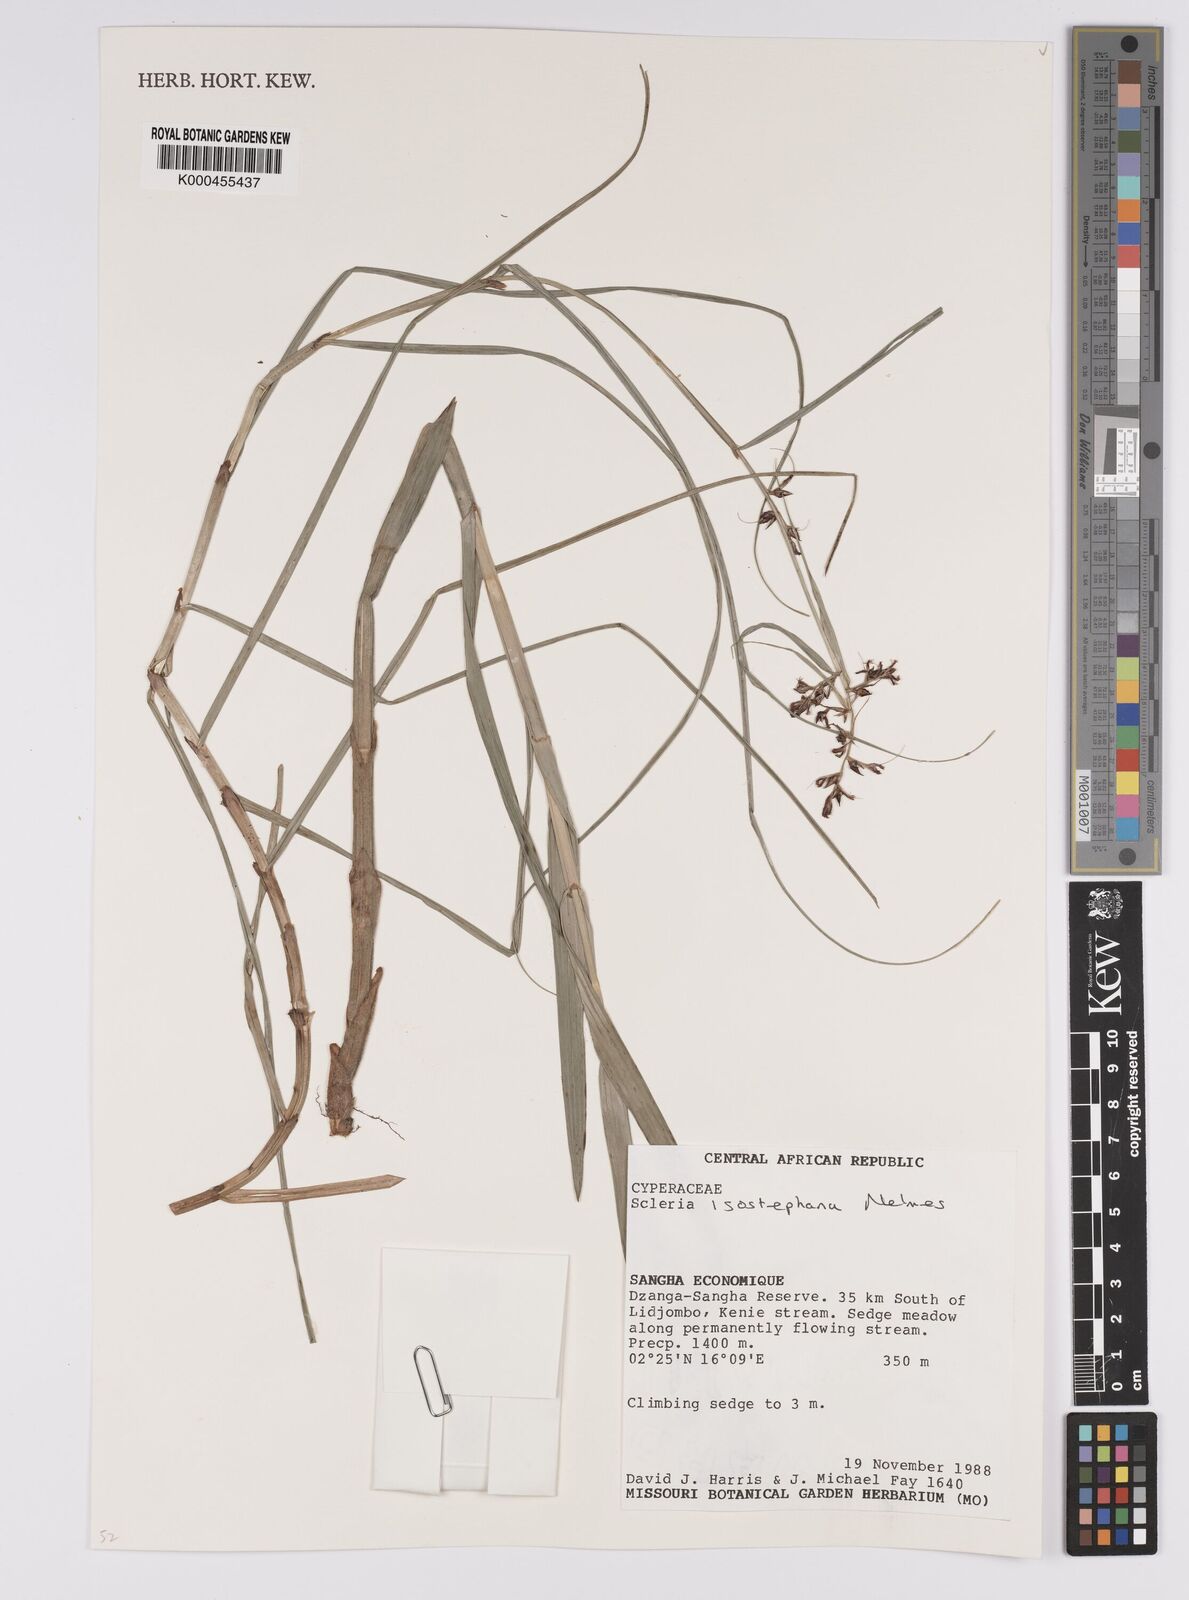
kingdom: Plantae
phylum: Tracheophyta
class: Liliopsida
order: Poales
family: Cyperaceae
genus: Scleria
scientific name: Scleria iostephana
